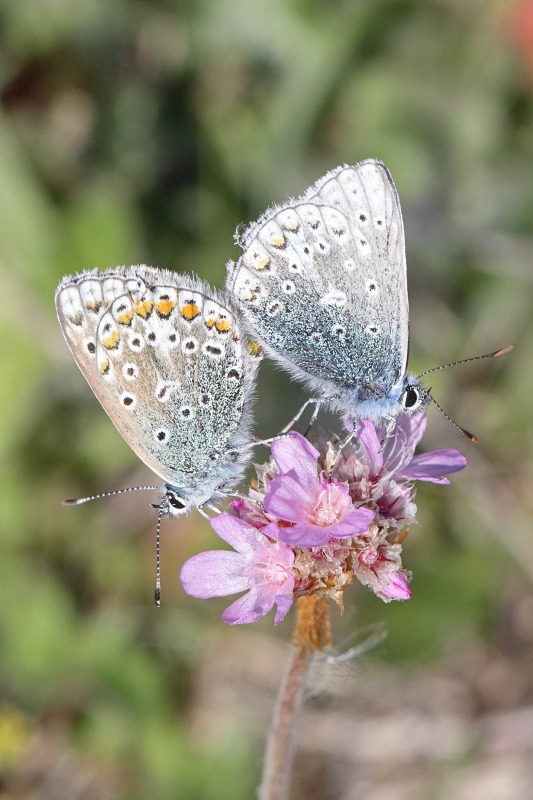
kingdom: Animalia
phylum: Arthropoda
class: Insecta
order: Lepidoptera
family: Lycaenidae
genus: Polyommatus
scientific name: Polyommatus icarus
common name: Almindelig blåfugl
